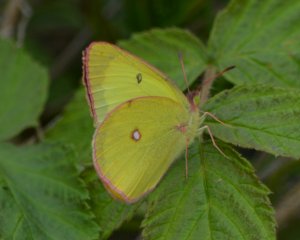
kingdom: Animalia
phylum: Arthropoda
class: Insecta
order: Lepidoptera
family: Pieridae
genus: Colias
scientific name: Colias interior
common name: Pink-edged Sulphur
